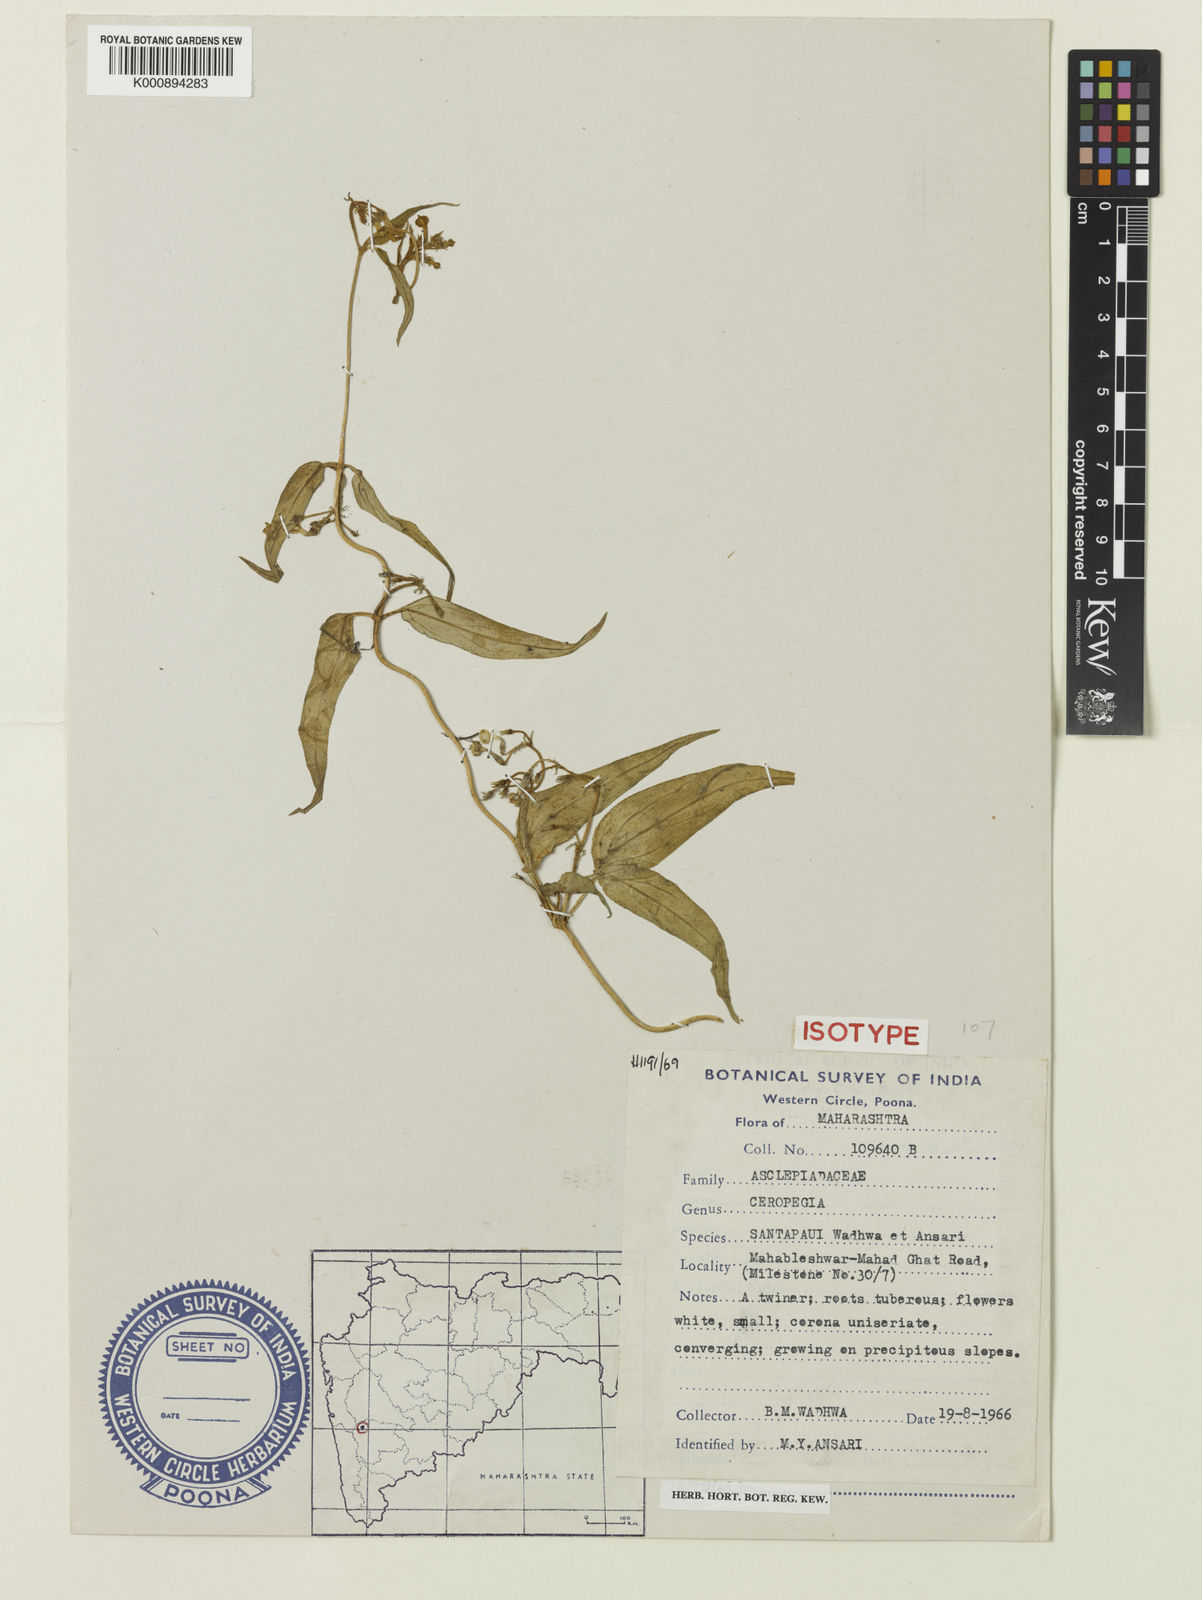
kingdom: Plantae
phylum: Tracheophyta
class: Magnoliopsida
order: Gentianales
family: Apocynaceae
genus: Ceropegia
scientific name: Ceropegia santapaui
